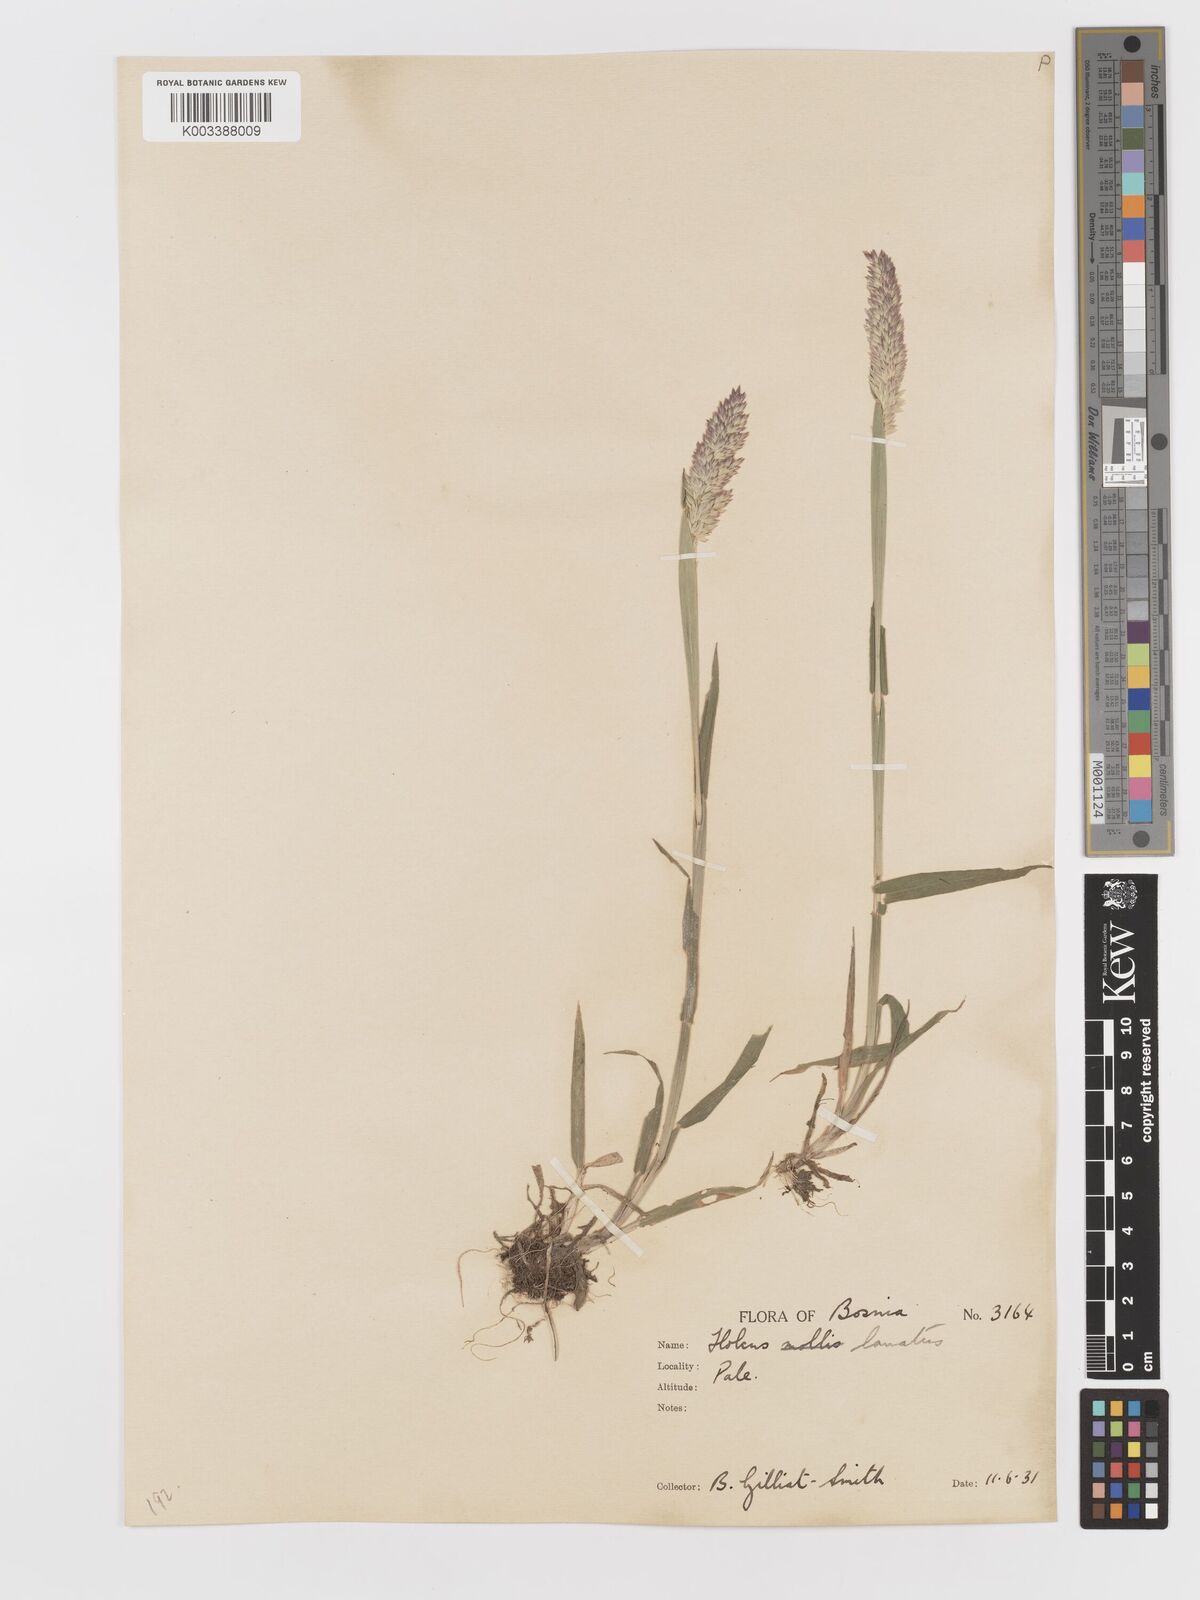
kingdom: Plantae
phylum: Tracheophyta
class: Liliopsida
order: Poales
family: Poaceae
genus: Holcus
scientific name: Holcus lanatus
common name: Yorkshire-fog
